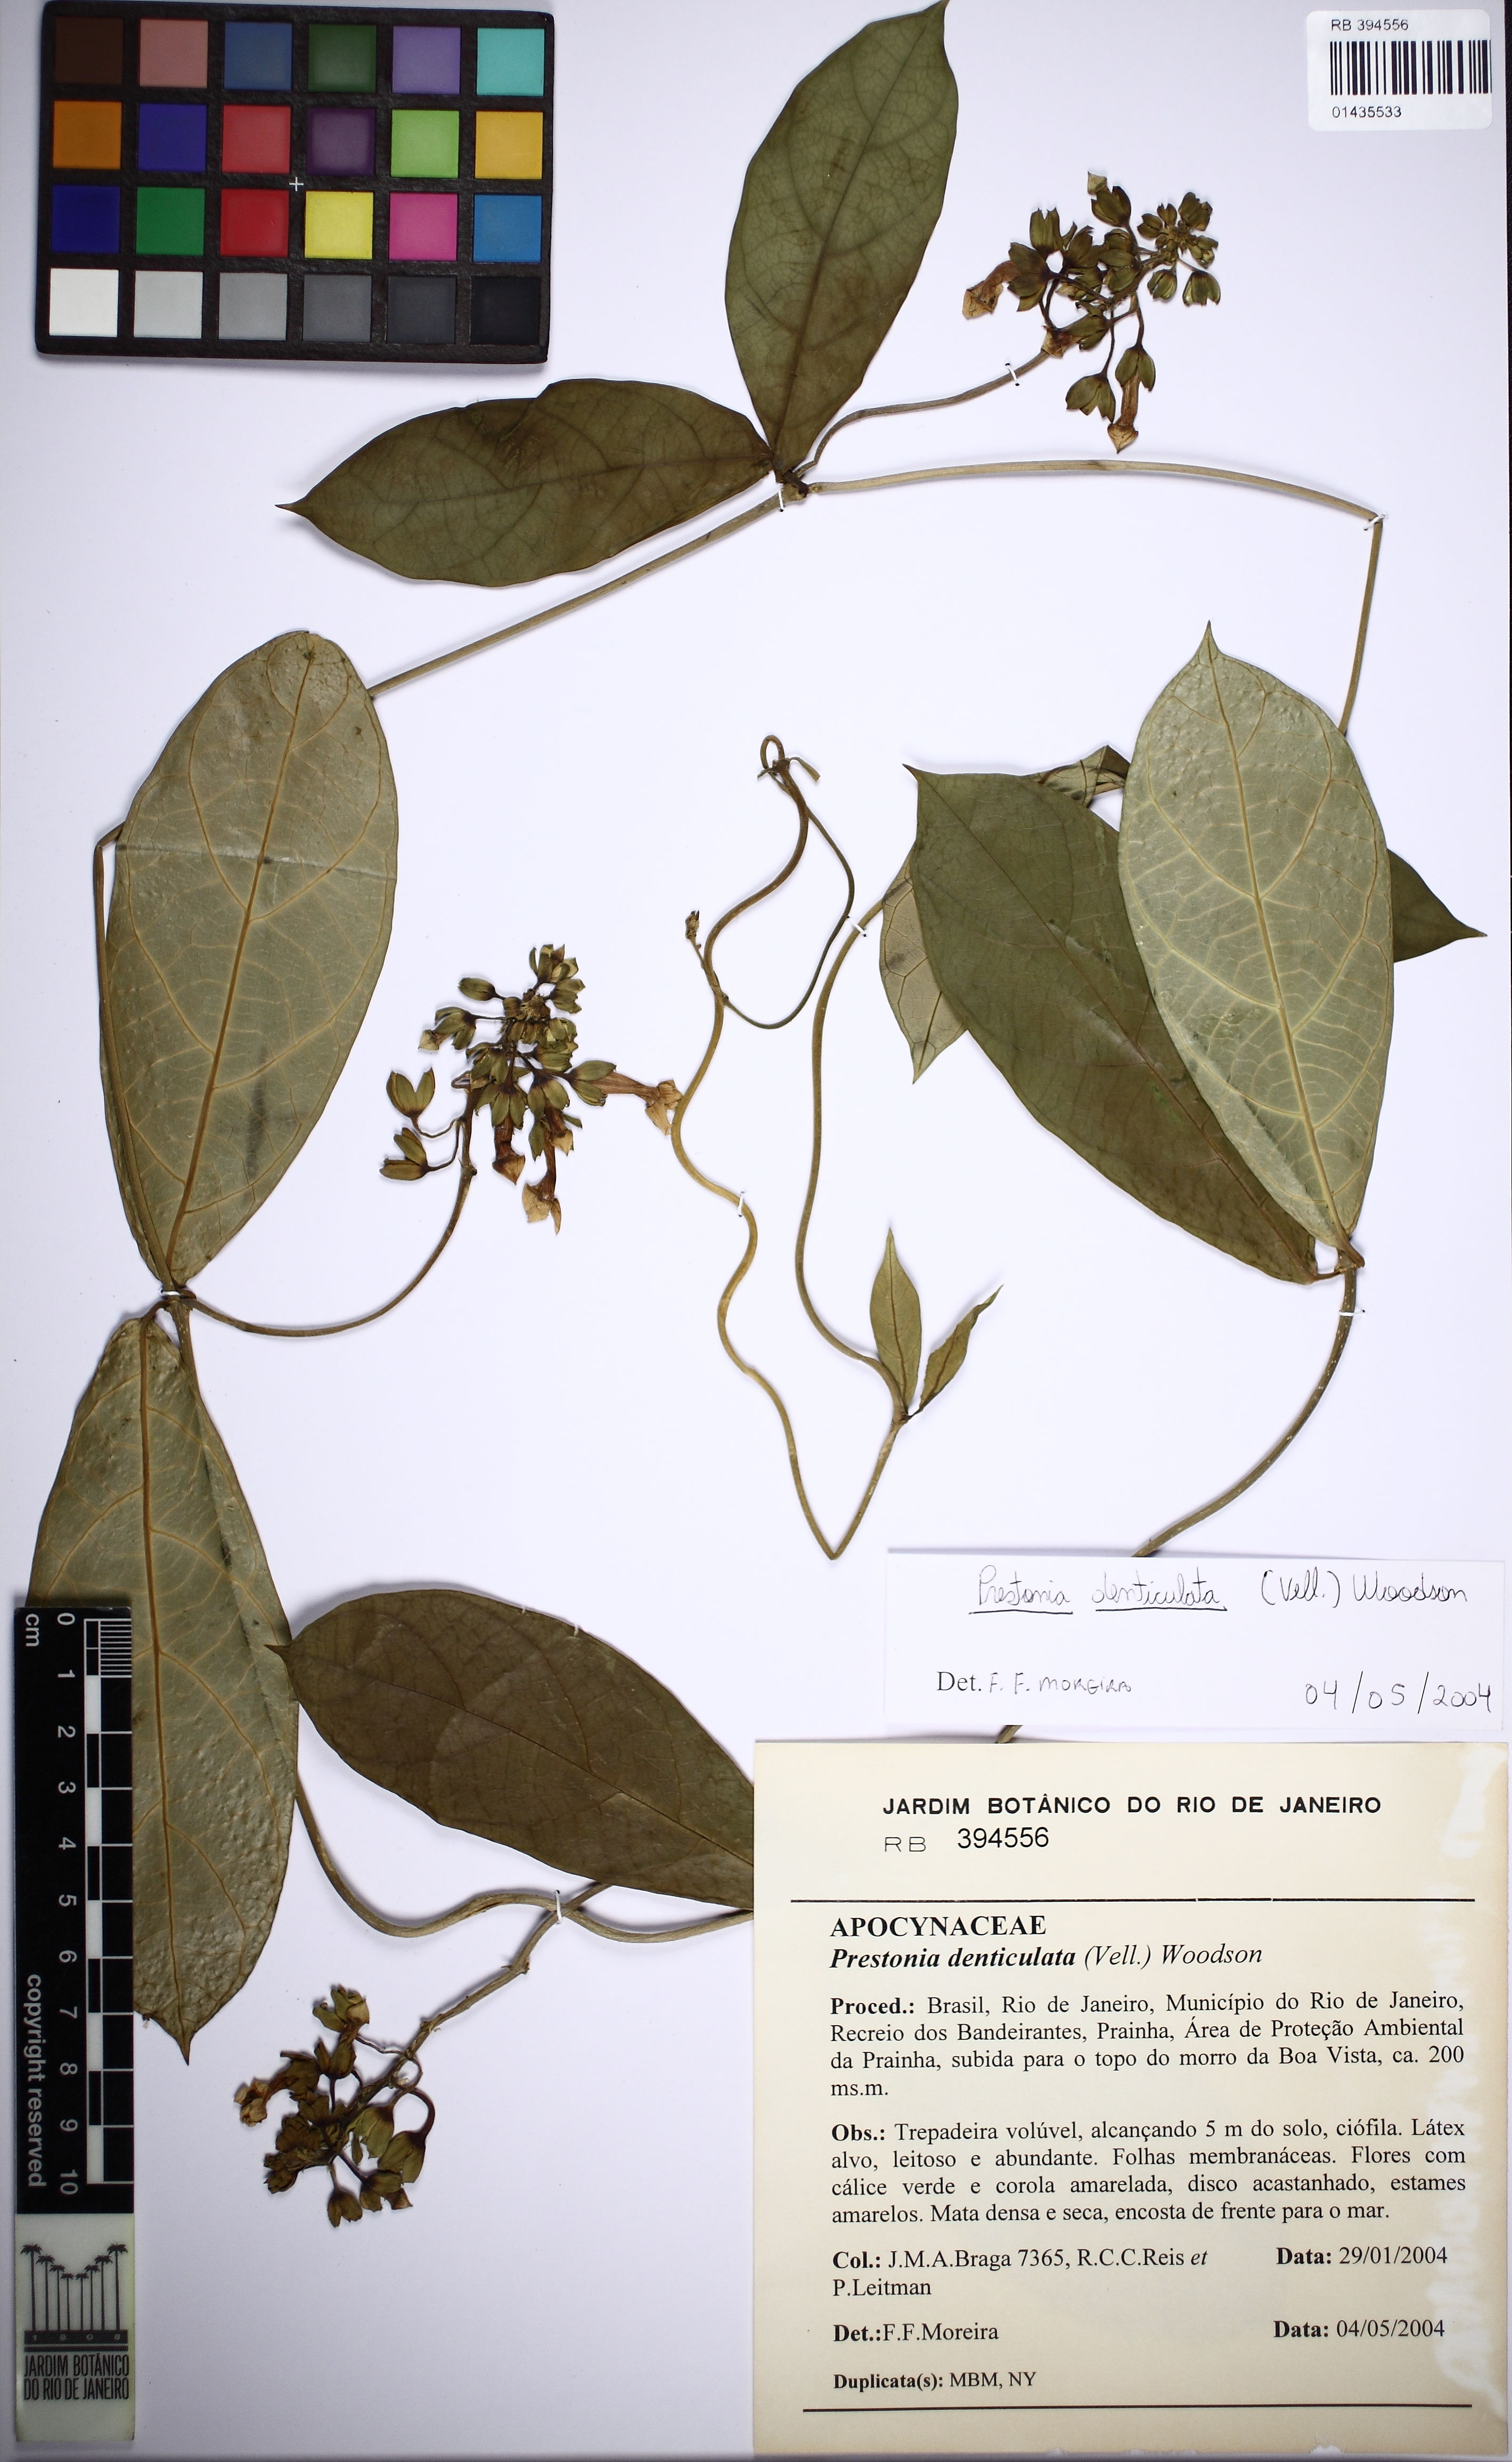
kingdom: Plantae
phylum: Tracheophyta
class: Magnoliopsida
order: Gentianales
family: Apocynaceae
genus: Prestonia
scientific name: Prestonia denticulata
